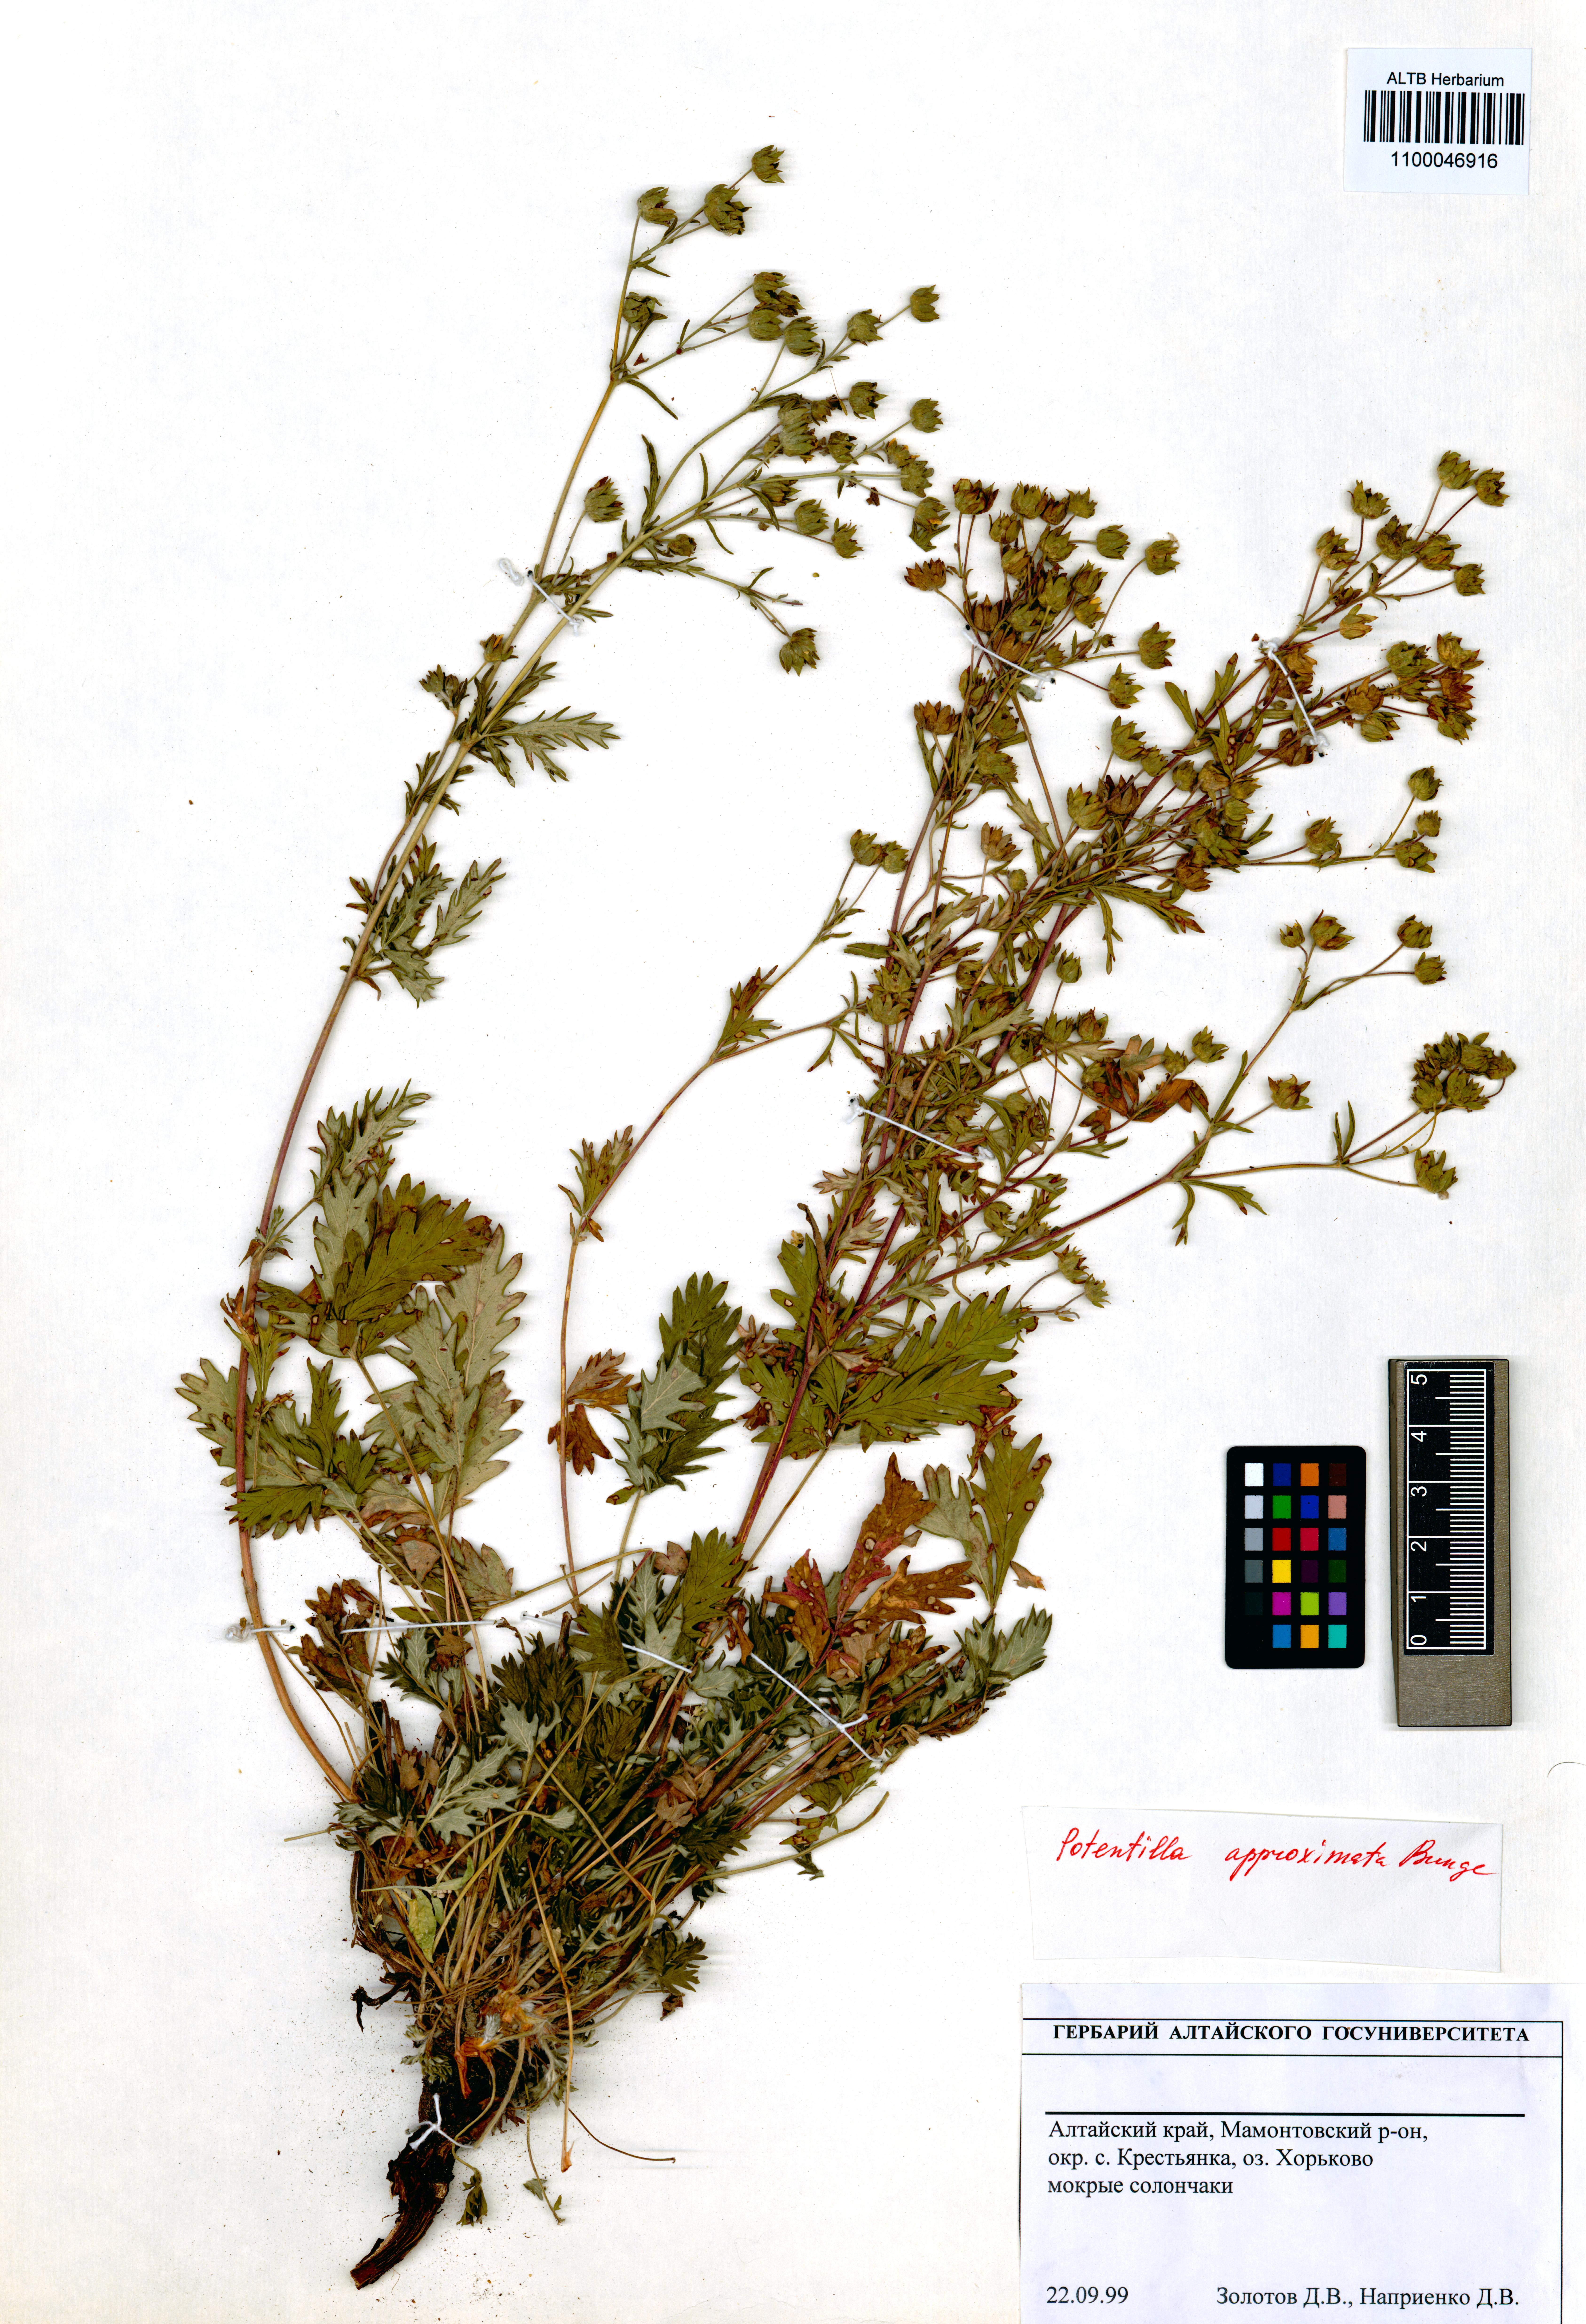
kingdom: Plantae
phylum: Tracheophyta
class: Magnoliopsida
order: Rosales
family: Rosaceae
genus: Potentilla
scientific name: Potentilla conferta
